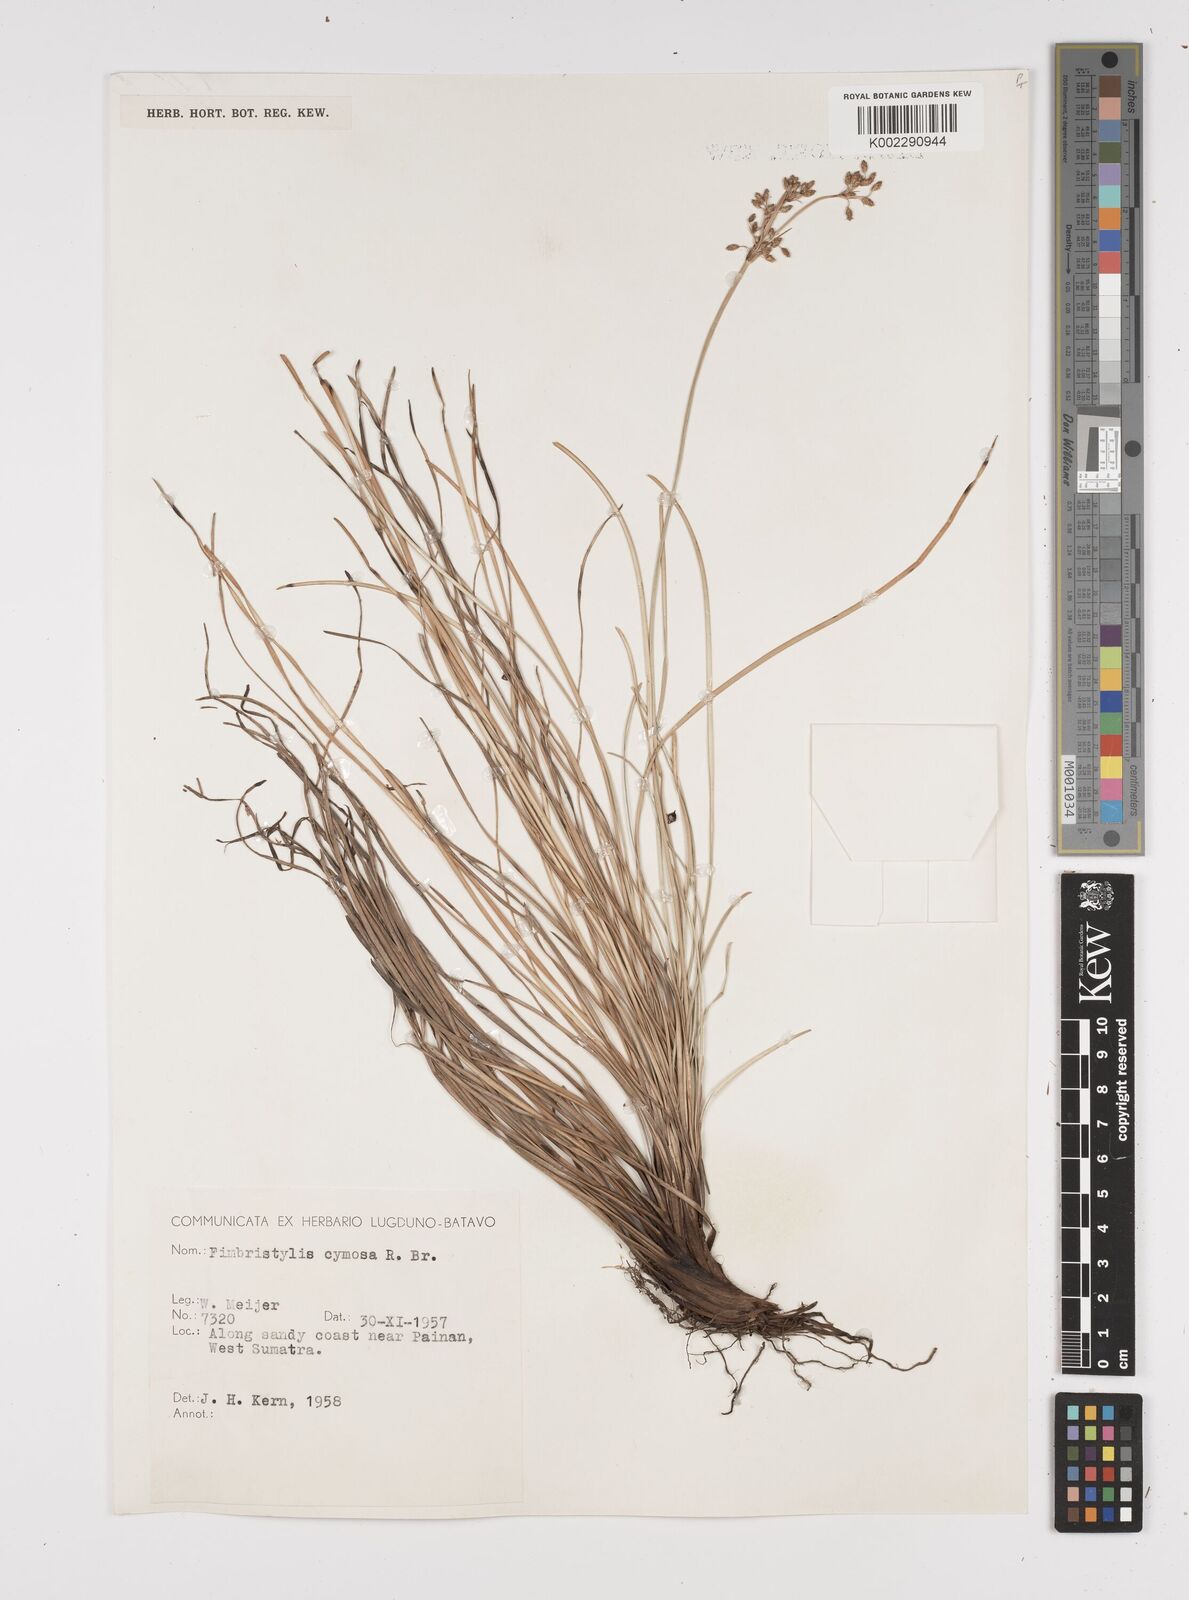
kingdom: Plantae
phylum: Tracheophyta
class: Liliopsida
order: Poales
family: Cyperaceae
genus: Fimbristylis
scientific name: Fimbristylis cymosa
